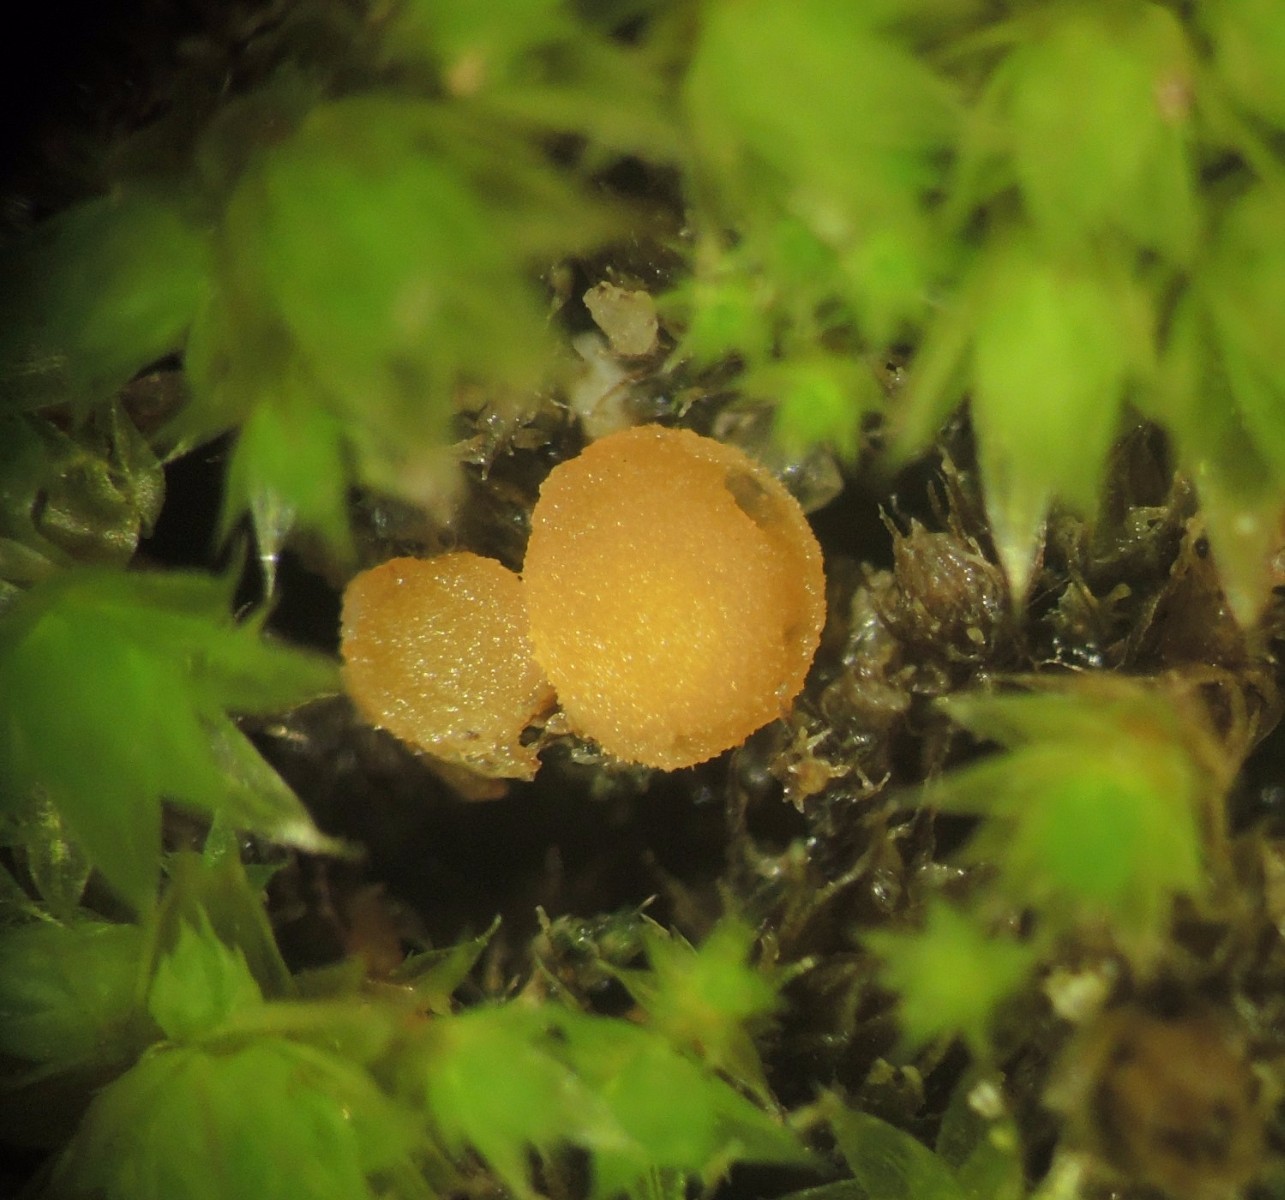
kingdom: Fungi
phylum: Ascomycota
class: Pezizomycetes
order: Pezizales
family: Pyronemataceae
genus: Octospora
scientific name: Octospora gemmicola
